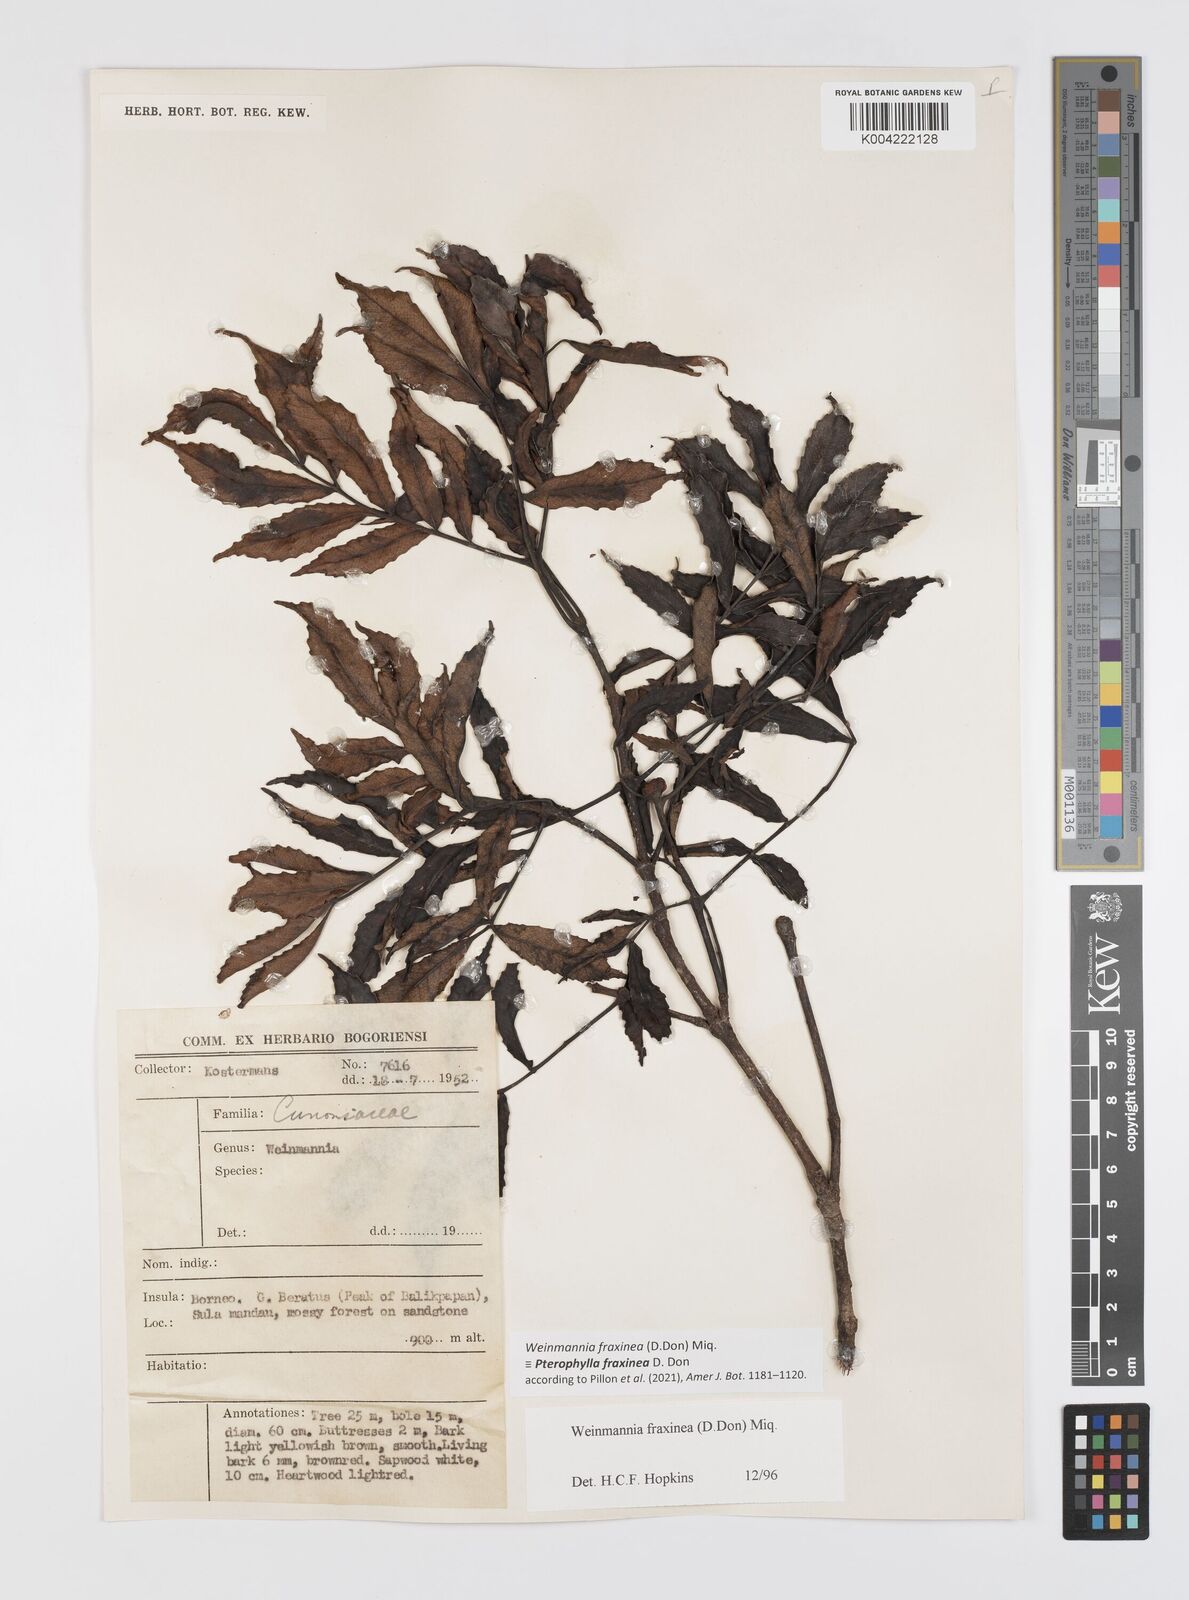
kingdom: Plantae
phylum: Tracheophyta
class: Magnoliopsida
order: Oxalidales
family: Cunoniaceae
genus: Pterophylla
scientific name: Pterophylla fraxinea
